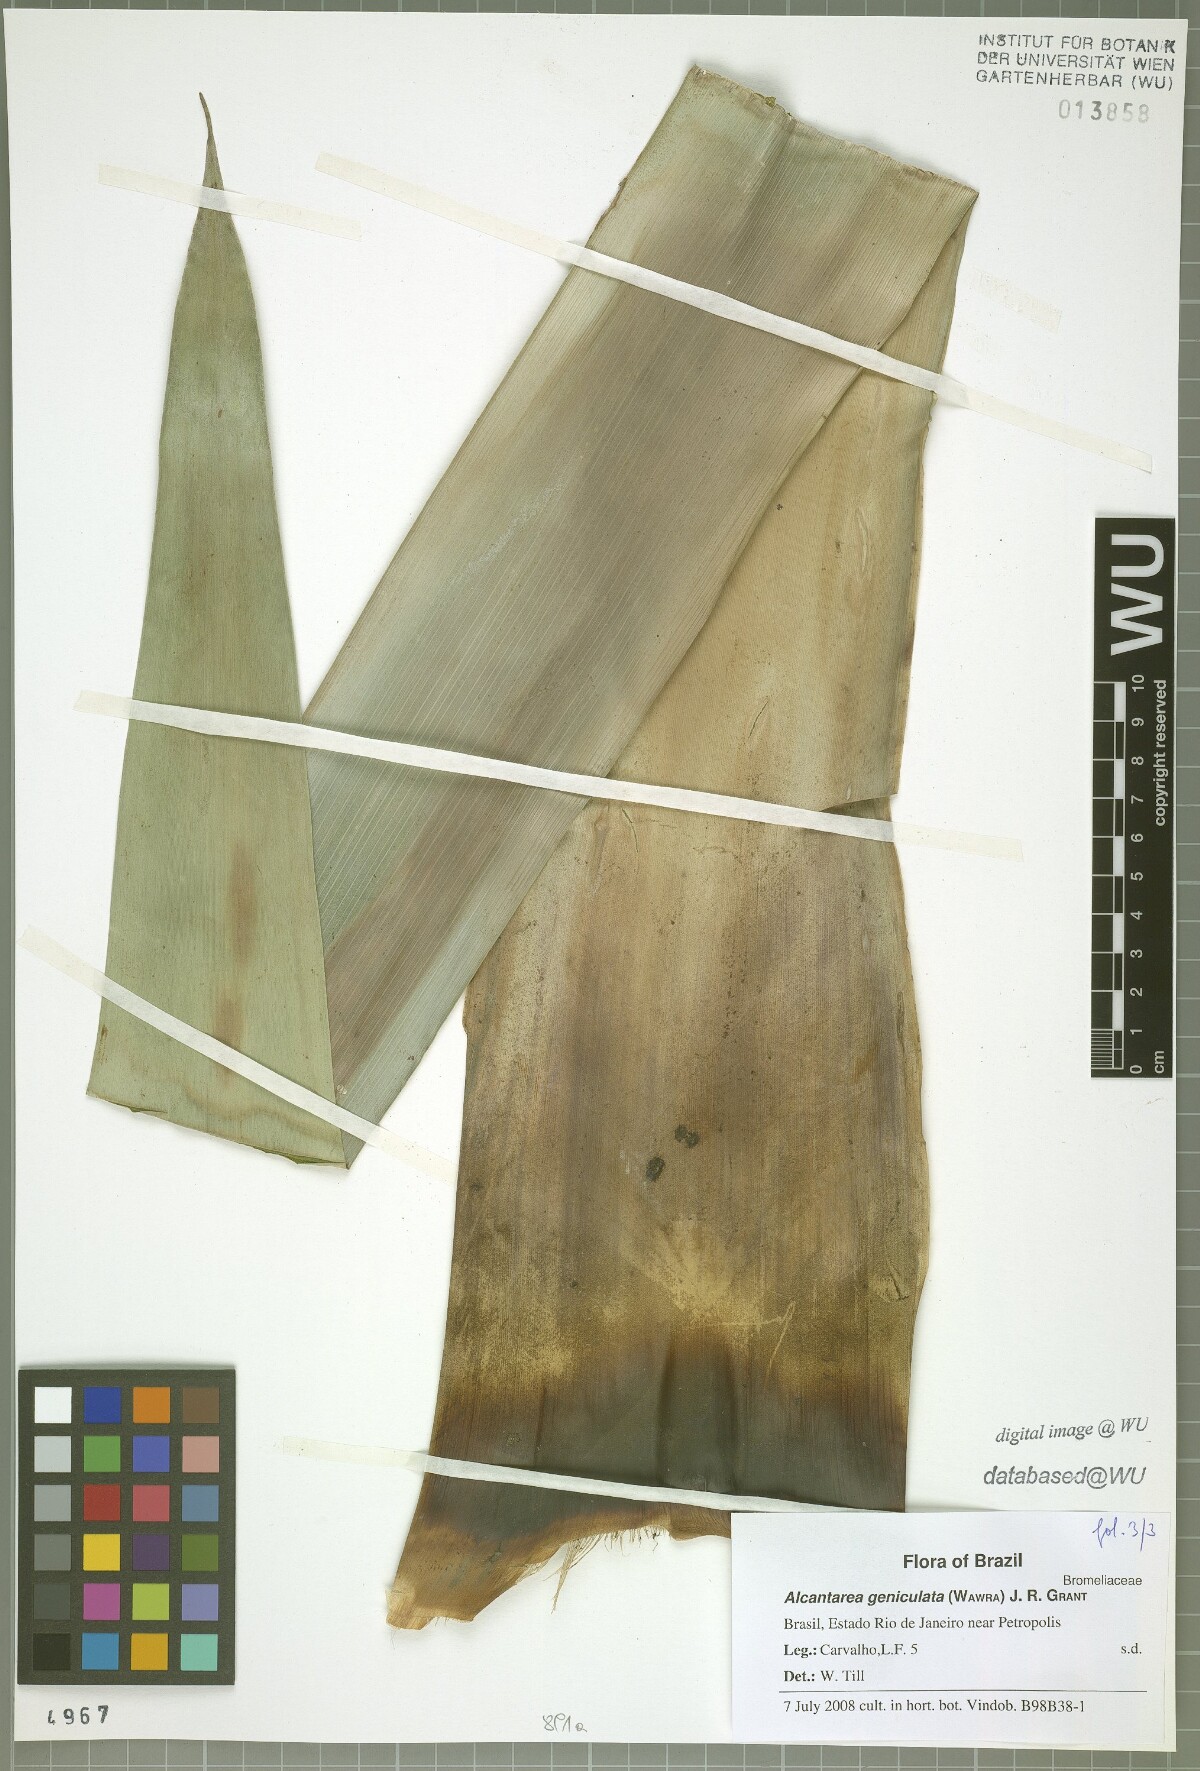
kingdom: Plantae
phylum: Tracheophyta
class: Liliopsida
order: Poales
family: Bromeliaceae
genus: Alcantarea
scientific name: Alcantarea geniculata
